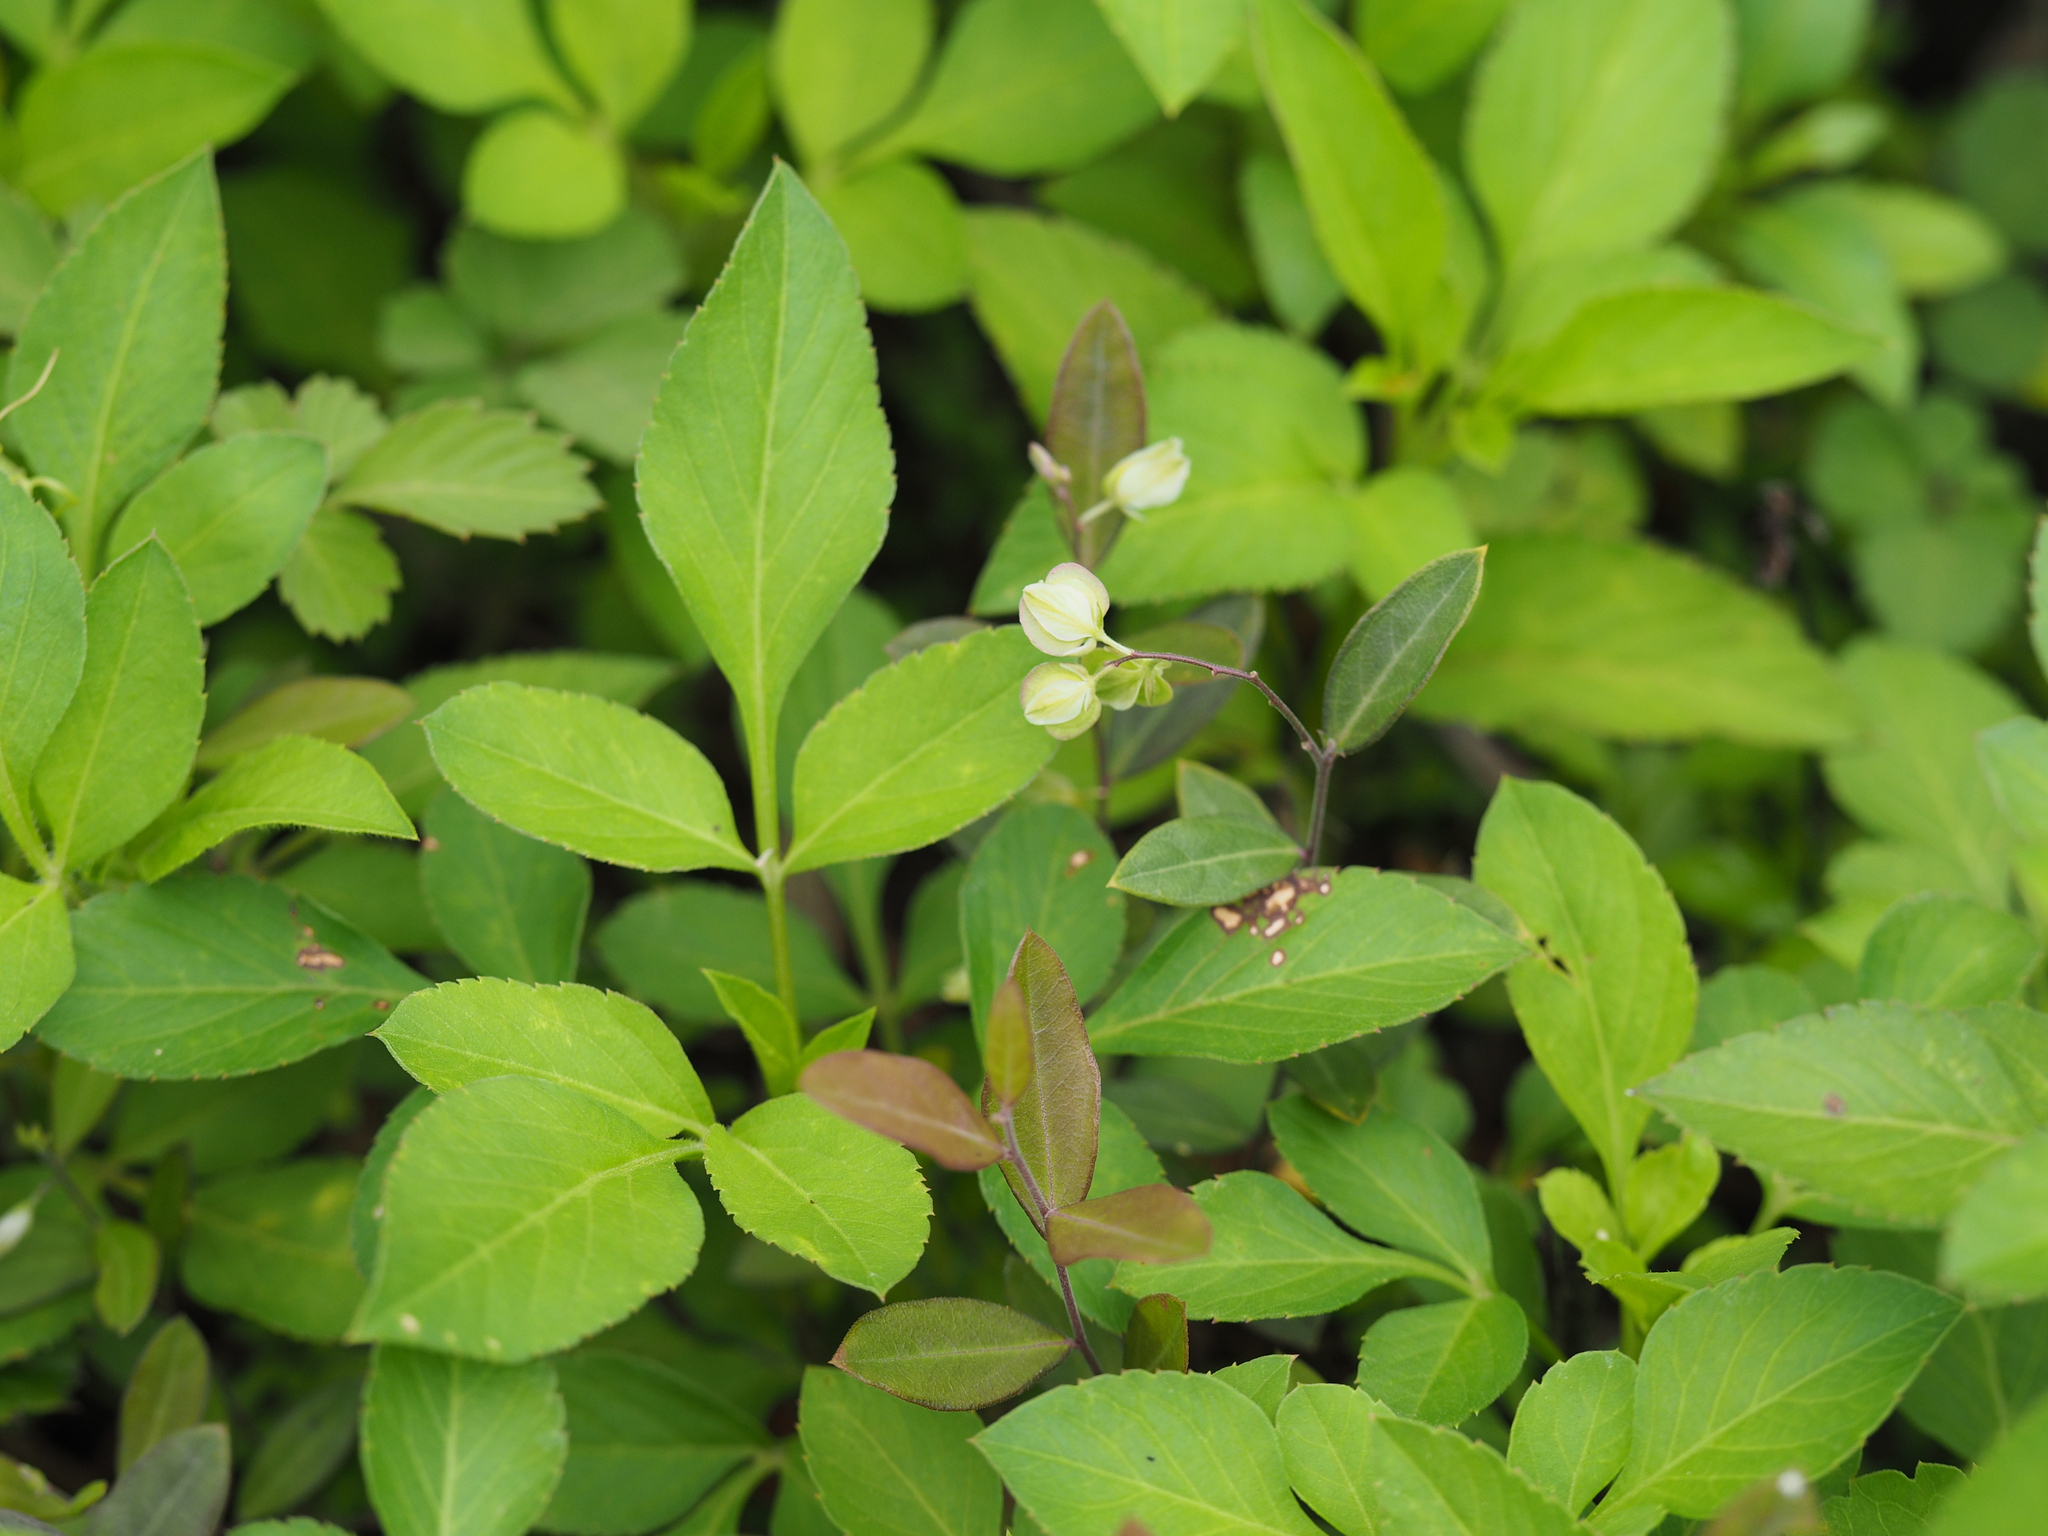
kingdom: Plantae
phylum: Tracheophyta
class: Magnoliopsida
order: Fabales
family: Polygalaceae
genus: Polygala
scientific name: Polygala japonica
